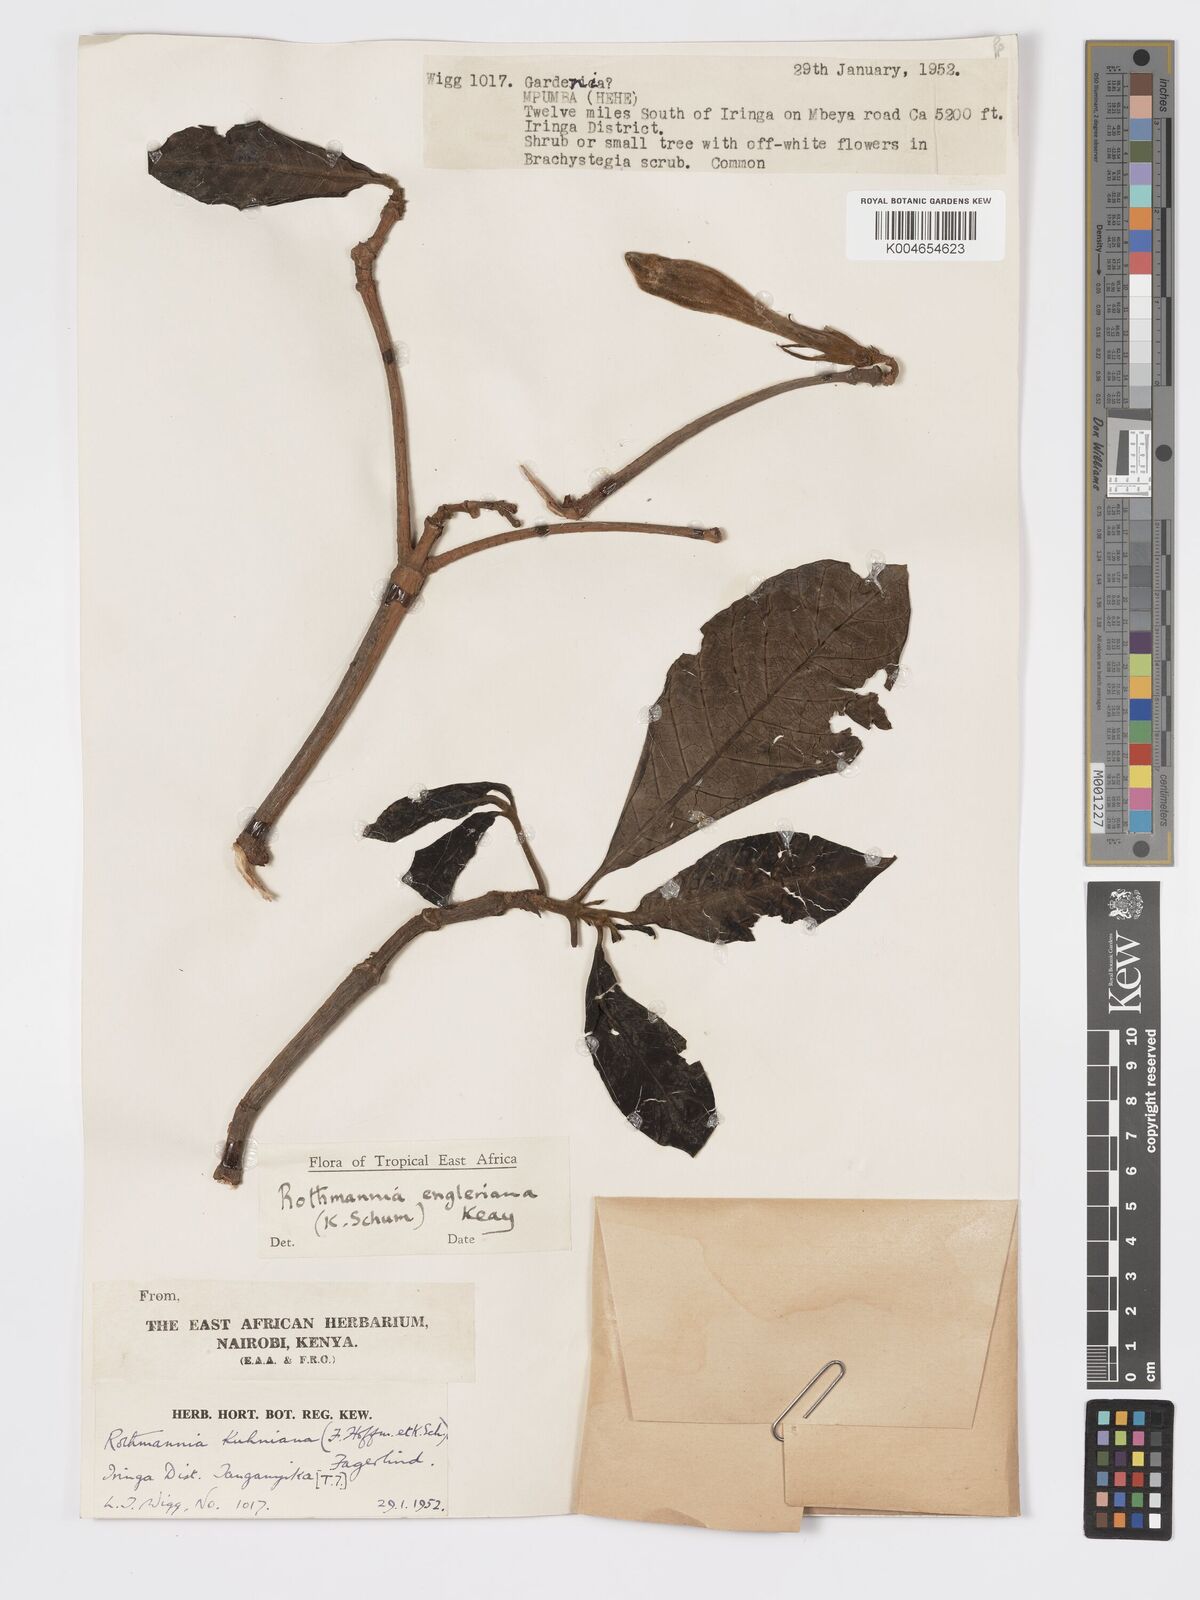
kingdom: Plantae
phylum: Tracheophyta
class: Magnoliopsida
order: Gentianales
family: Rubiaceae
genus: Rothmannia
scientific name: Rothmannia engleriana
